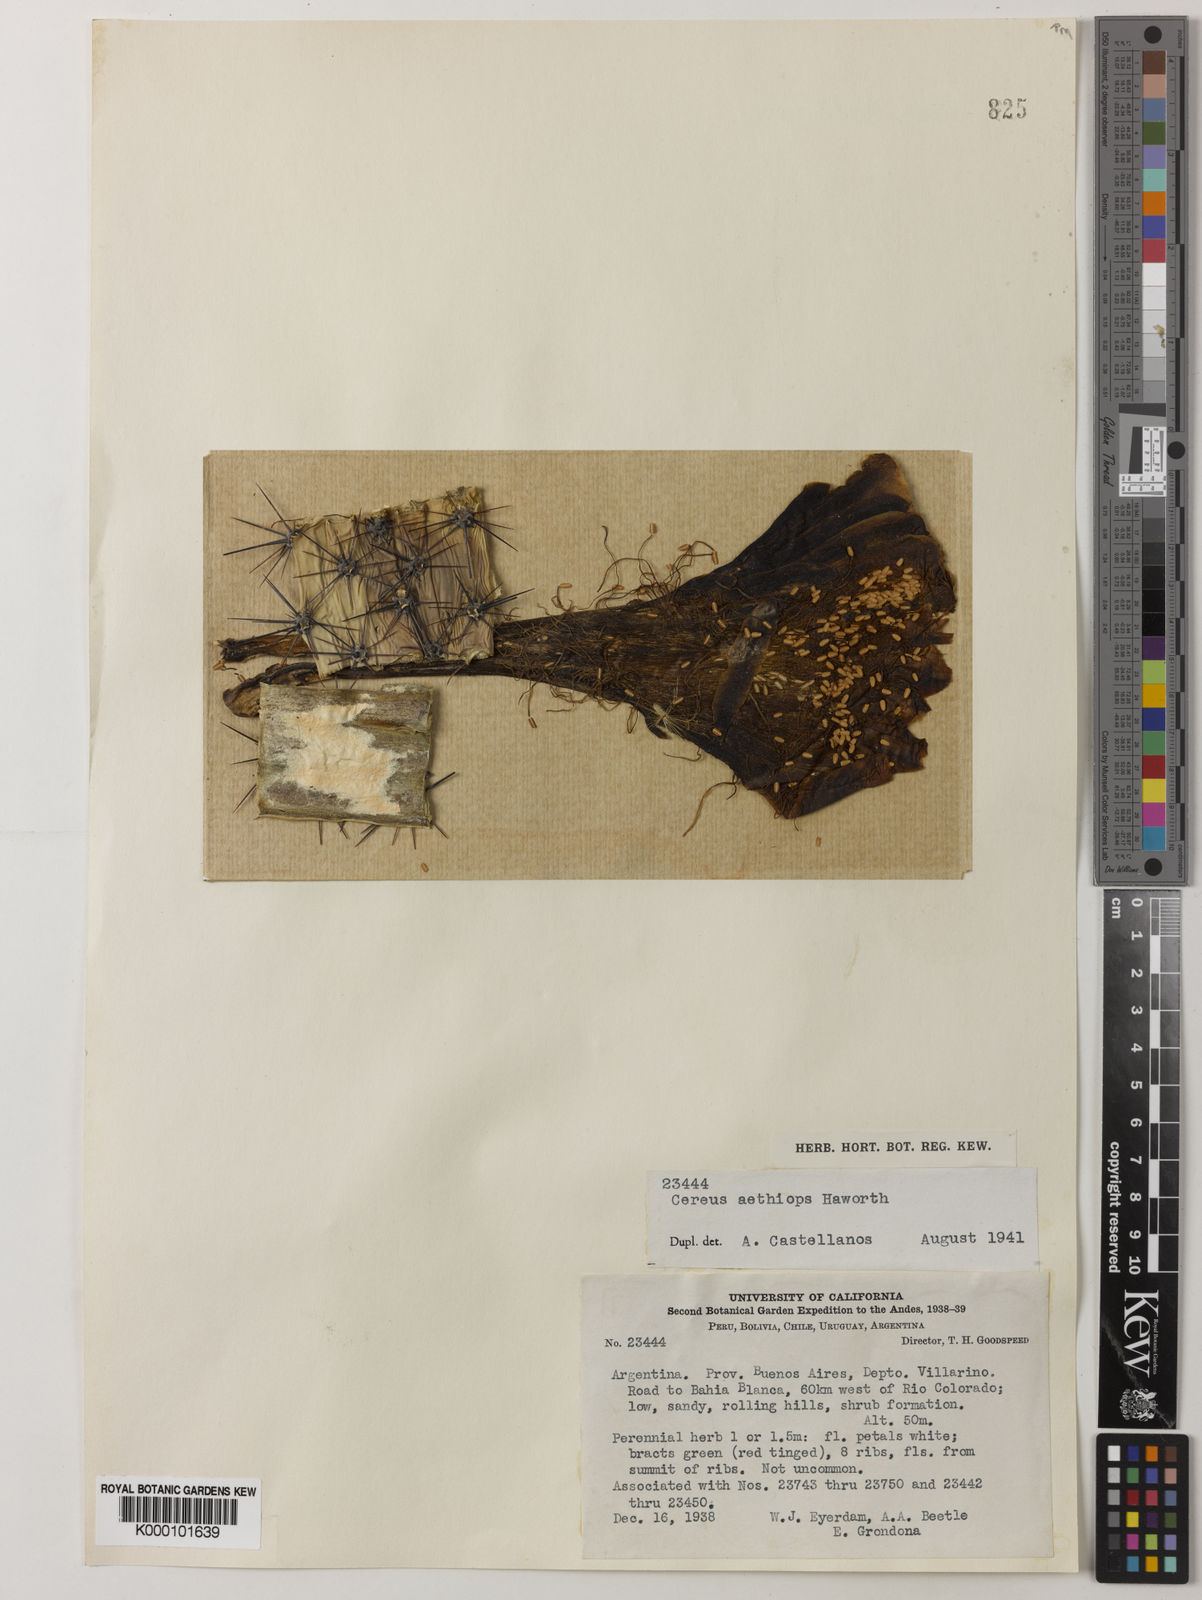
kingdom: Plantae
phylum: Tracheophyta
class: Magnoliopsida
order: Caryophyllales
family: Cactaceae
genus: Cereus
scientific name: Cereus aethiops
